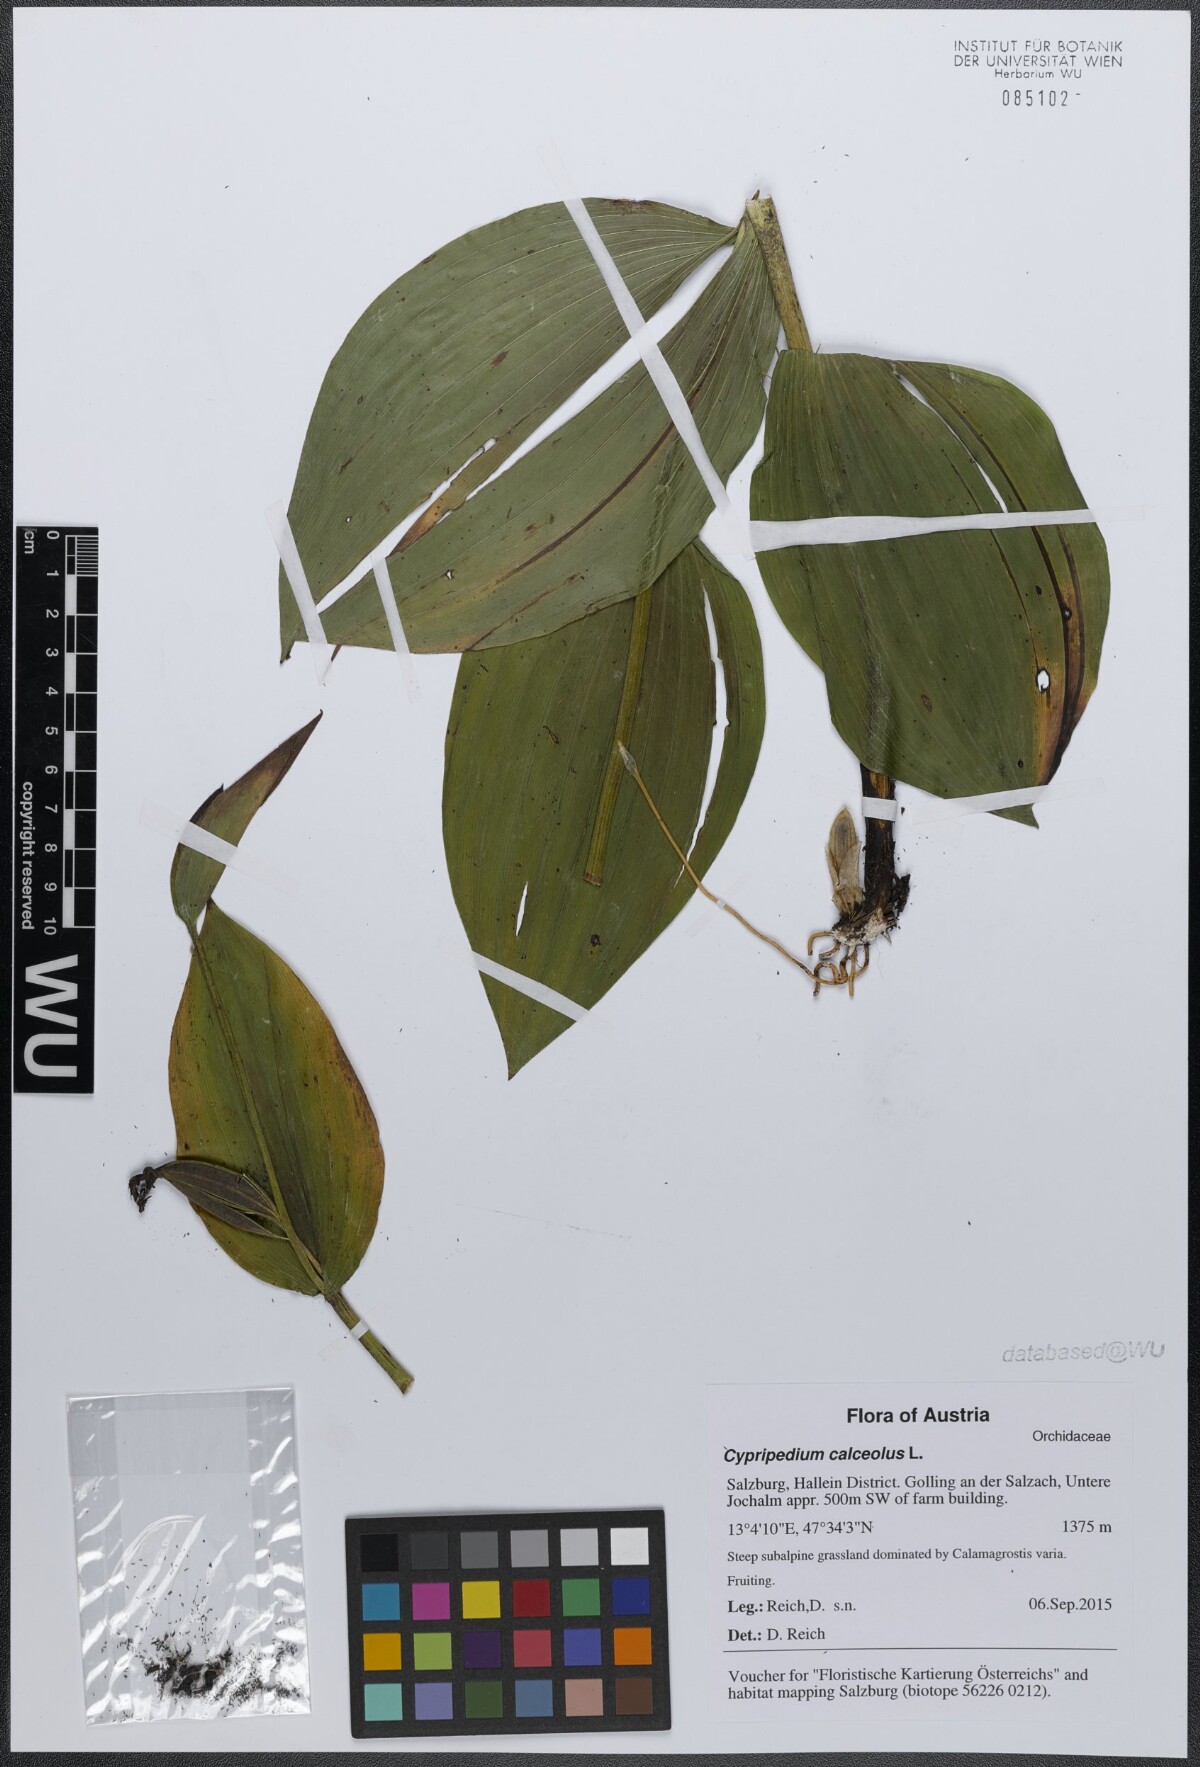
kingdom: Plantae
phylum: Tracheophyta
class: Liliopsida
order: Asparagales
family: Orchidaceae
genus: Cypripedium
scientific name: Cypripedium calceolus
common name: Lady's-slipper
